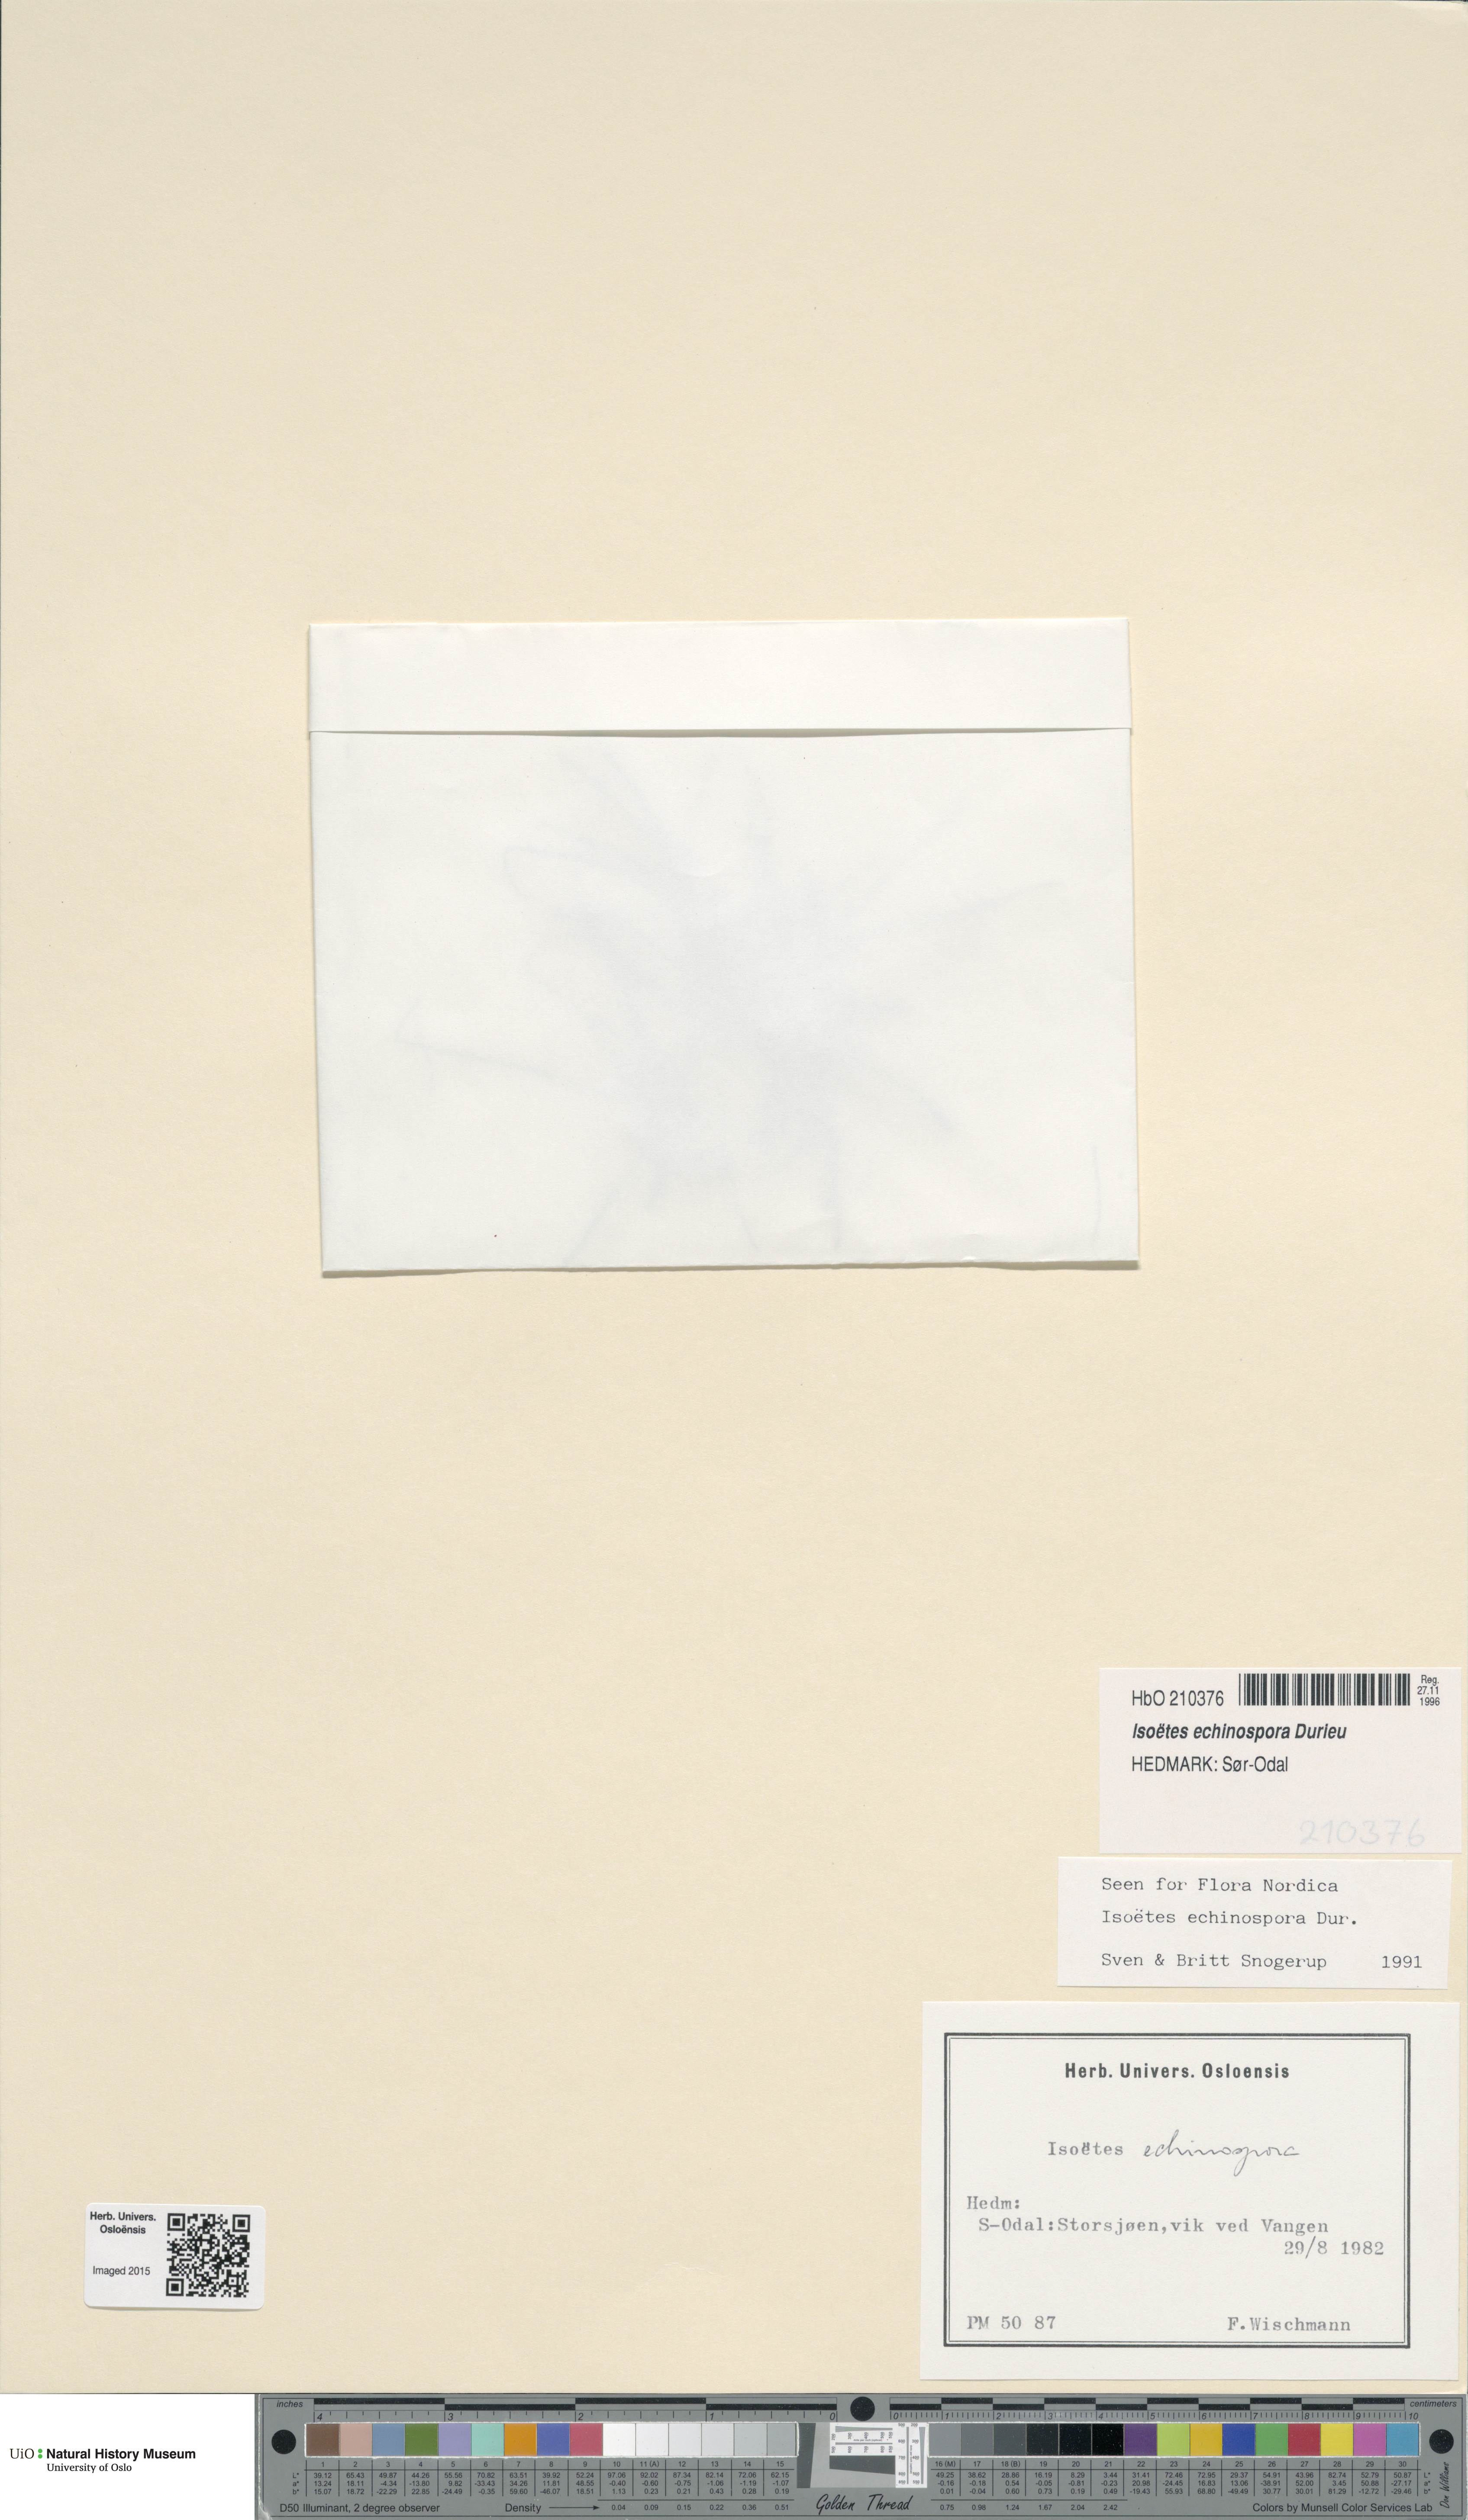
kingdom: Plantae
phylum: Tracheophyta
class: Lycopodiopsida
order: Isoetales
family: Isoetaceae
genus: Isoetes
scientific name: Isoetes echinospora
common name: Spring quillwort
